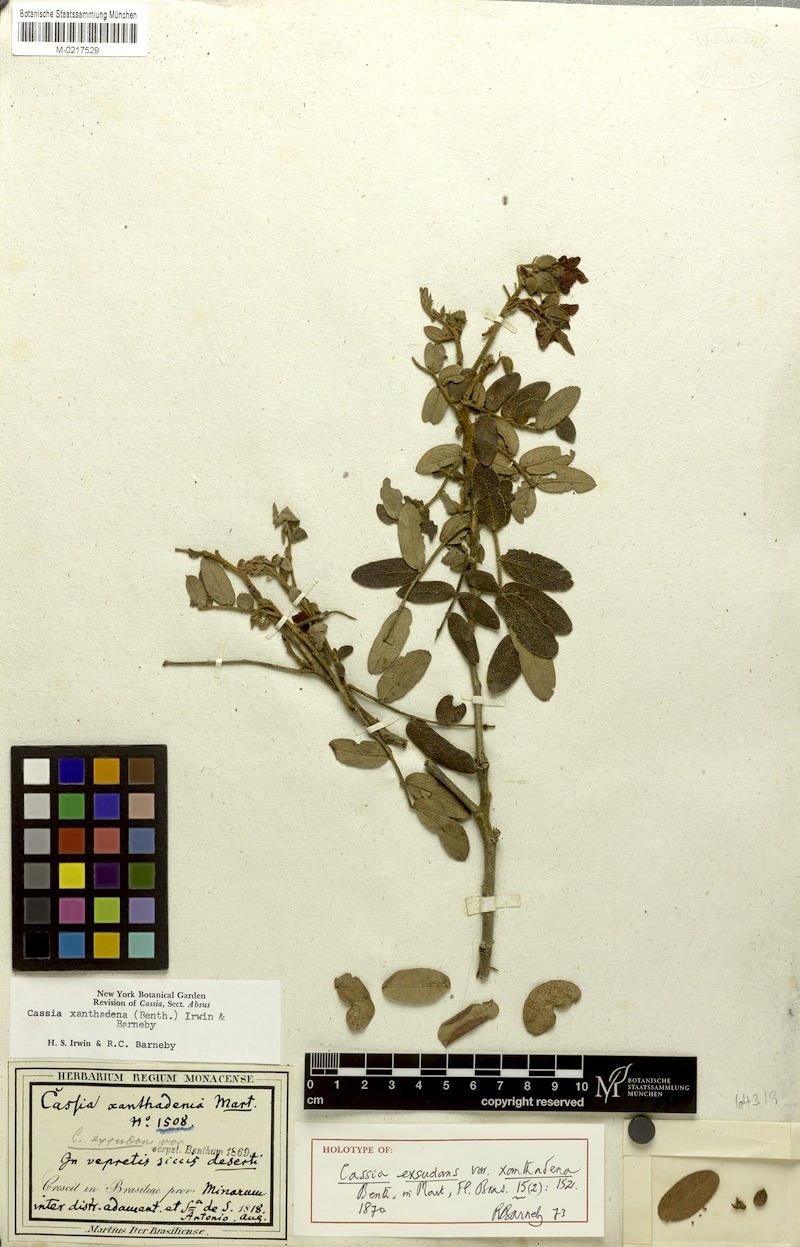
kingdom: Plantae
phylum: Tracheophyta
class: Magnoliopsida
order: Fabales
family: Fabaceae
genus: Chamaecrista
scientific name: Chamaecrista exsudans
